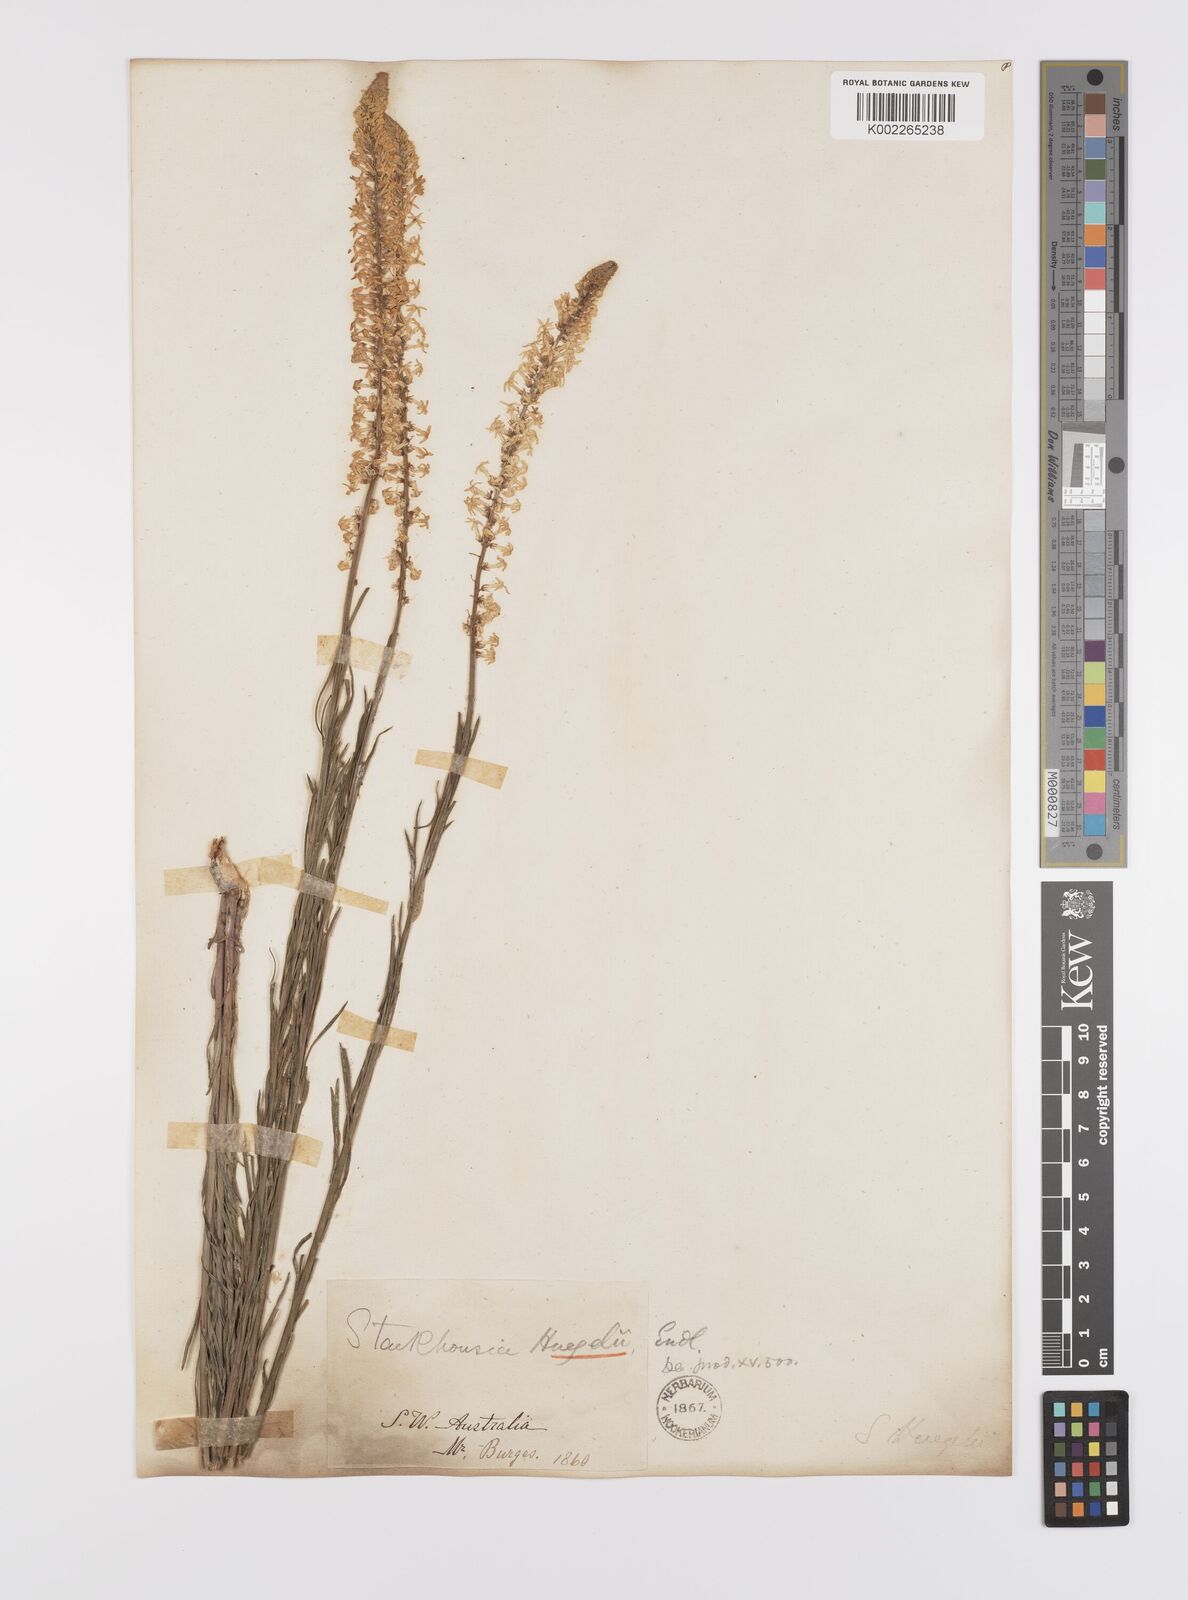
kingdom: Plantae
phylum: Tracheophyta
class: Magnoliopsida
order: Celastrales
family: Celastraceae
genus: Stackhousia
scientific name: Stackhousia monogyna
